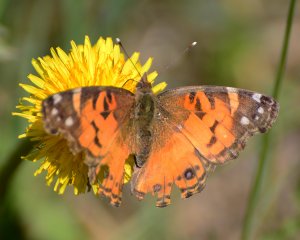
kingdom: Animalia
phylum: Arthropoda
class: Insecta
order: Lepidoptera
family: Nymphalidae
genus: Vanessa
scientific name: Vanessa virginiensis
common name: American Lady
